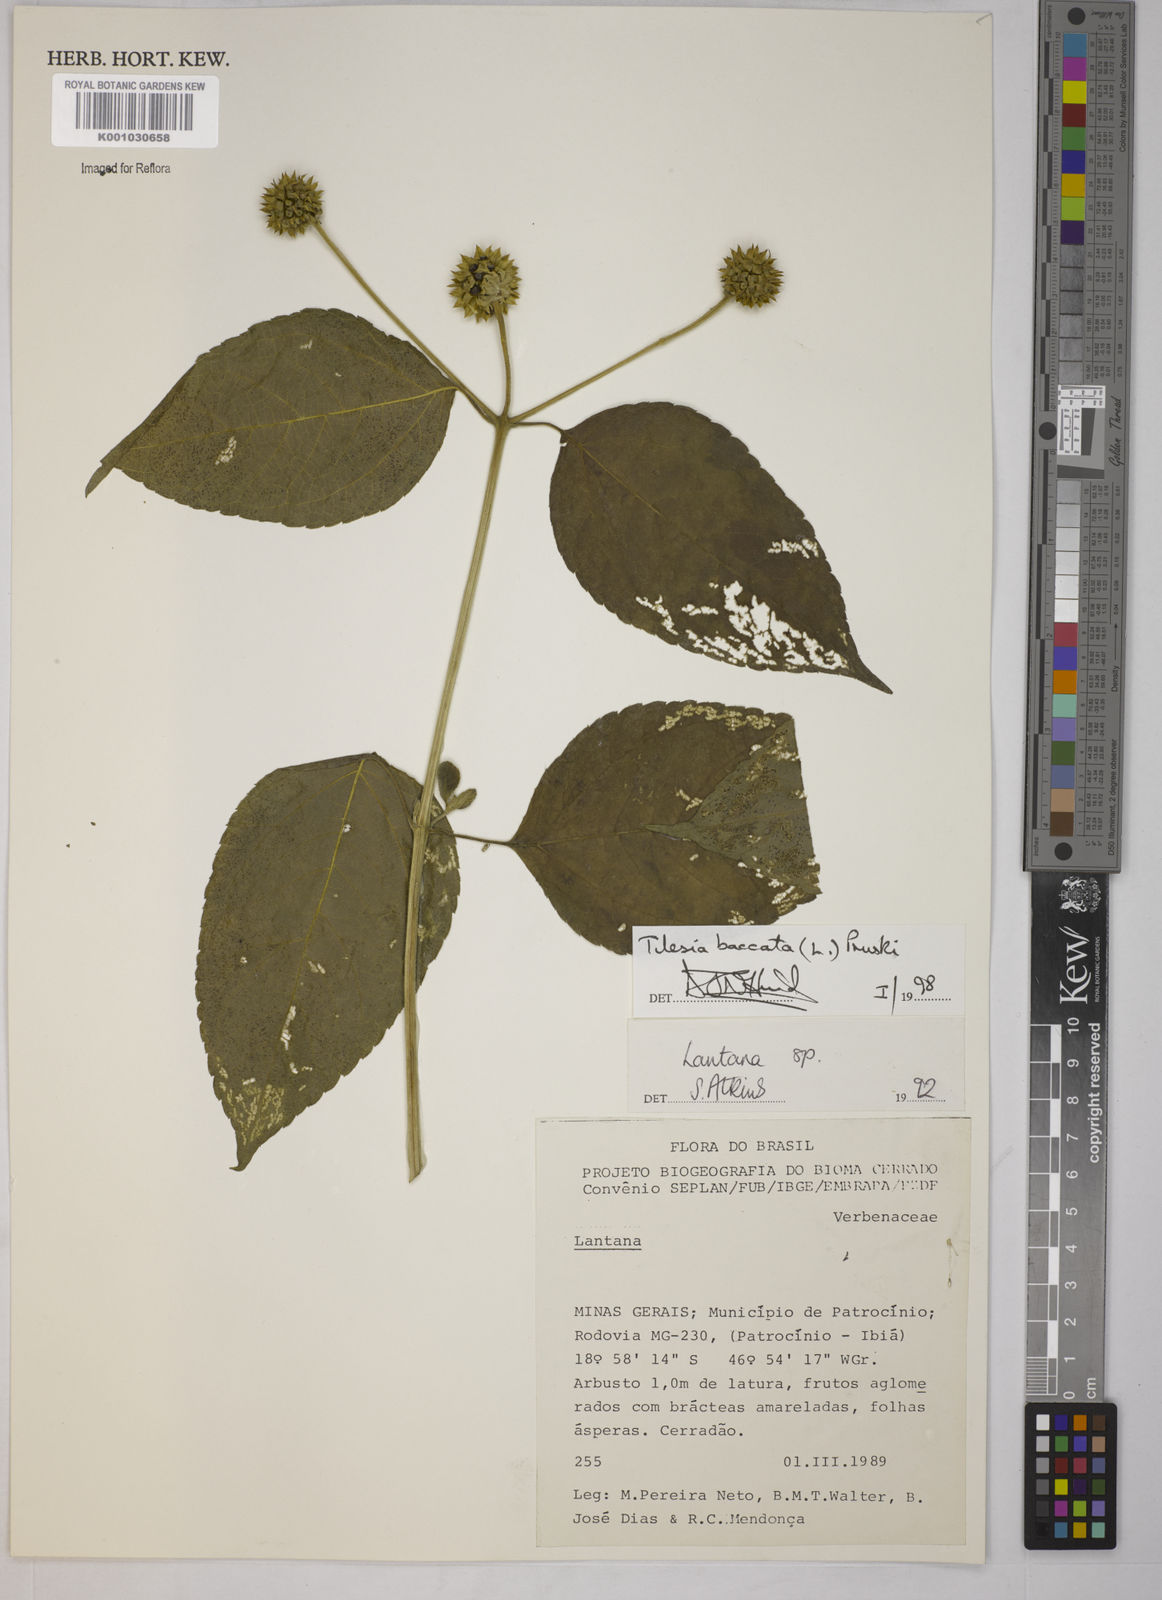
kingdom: Plantae
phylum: Tracheophyta
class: Magnoliopsida
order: Asterales
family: Asteraceae
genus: Tilesia
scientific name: Tilesia baccata
